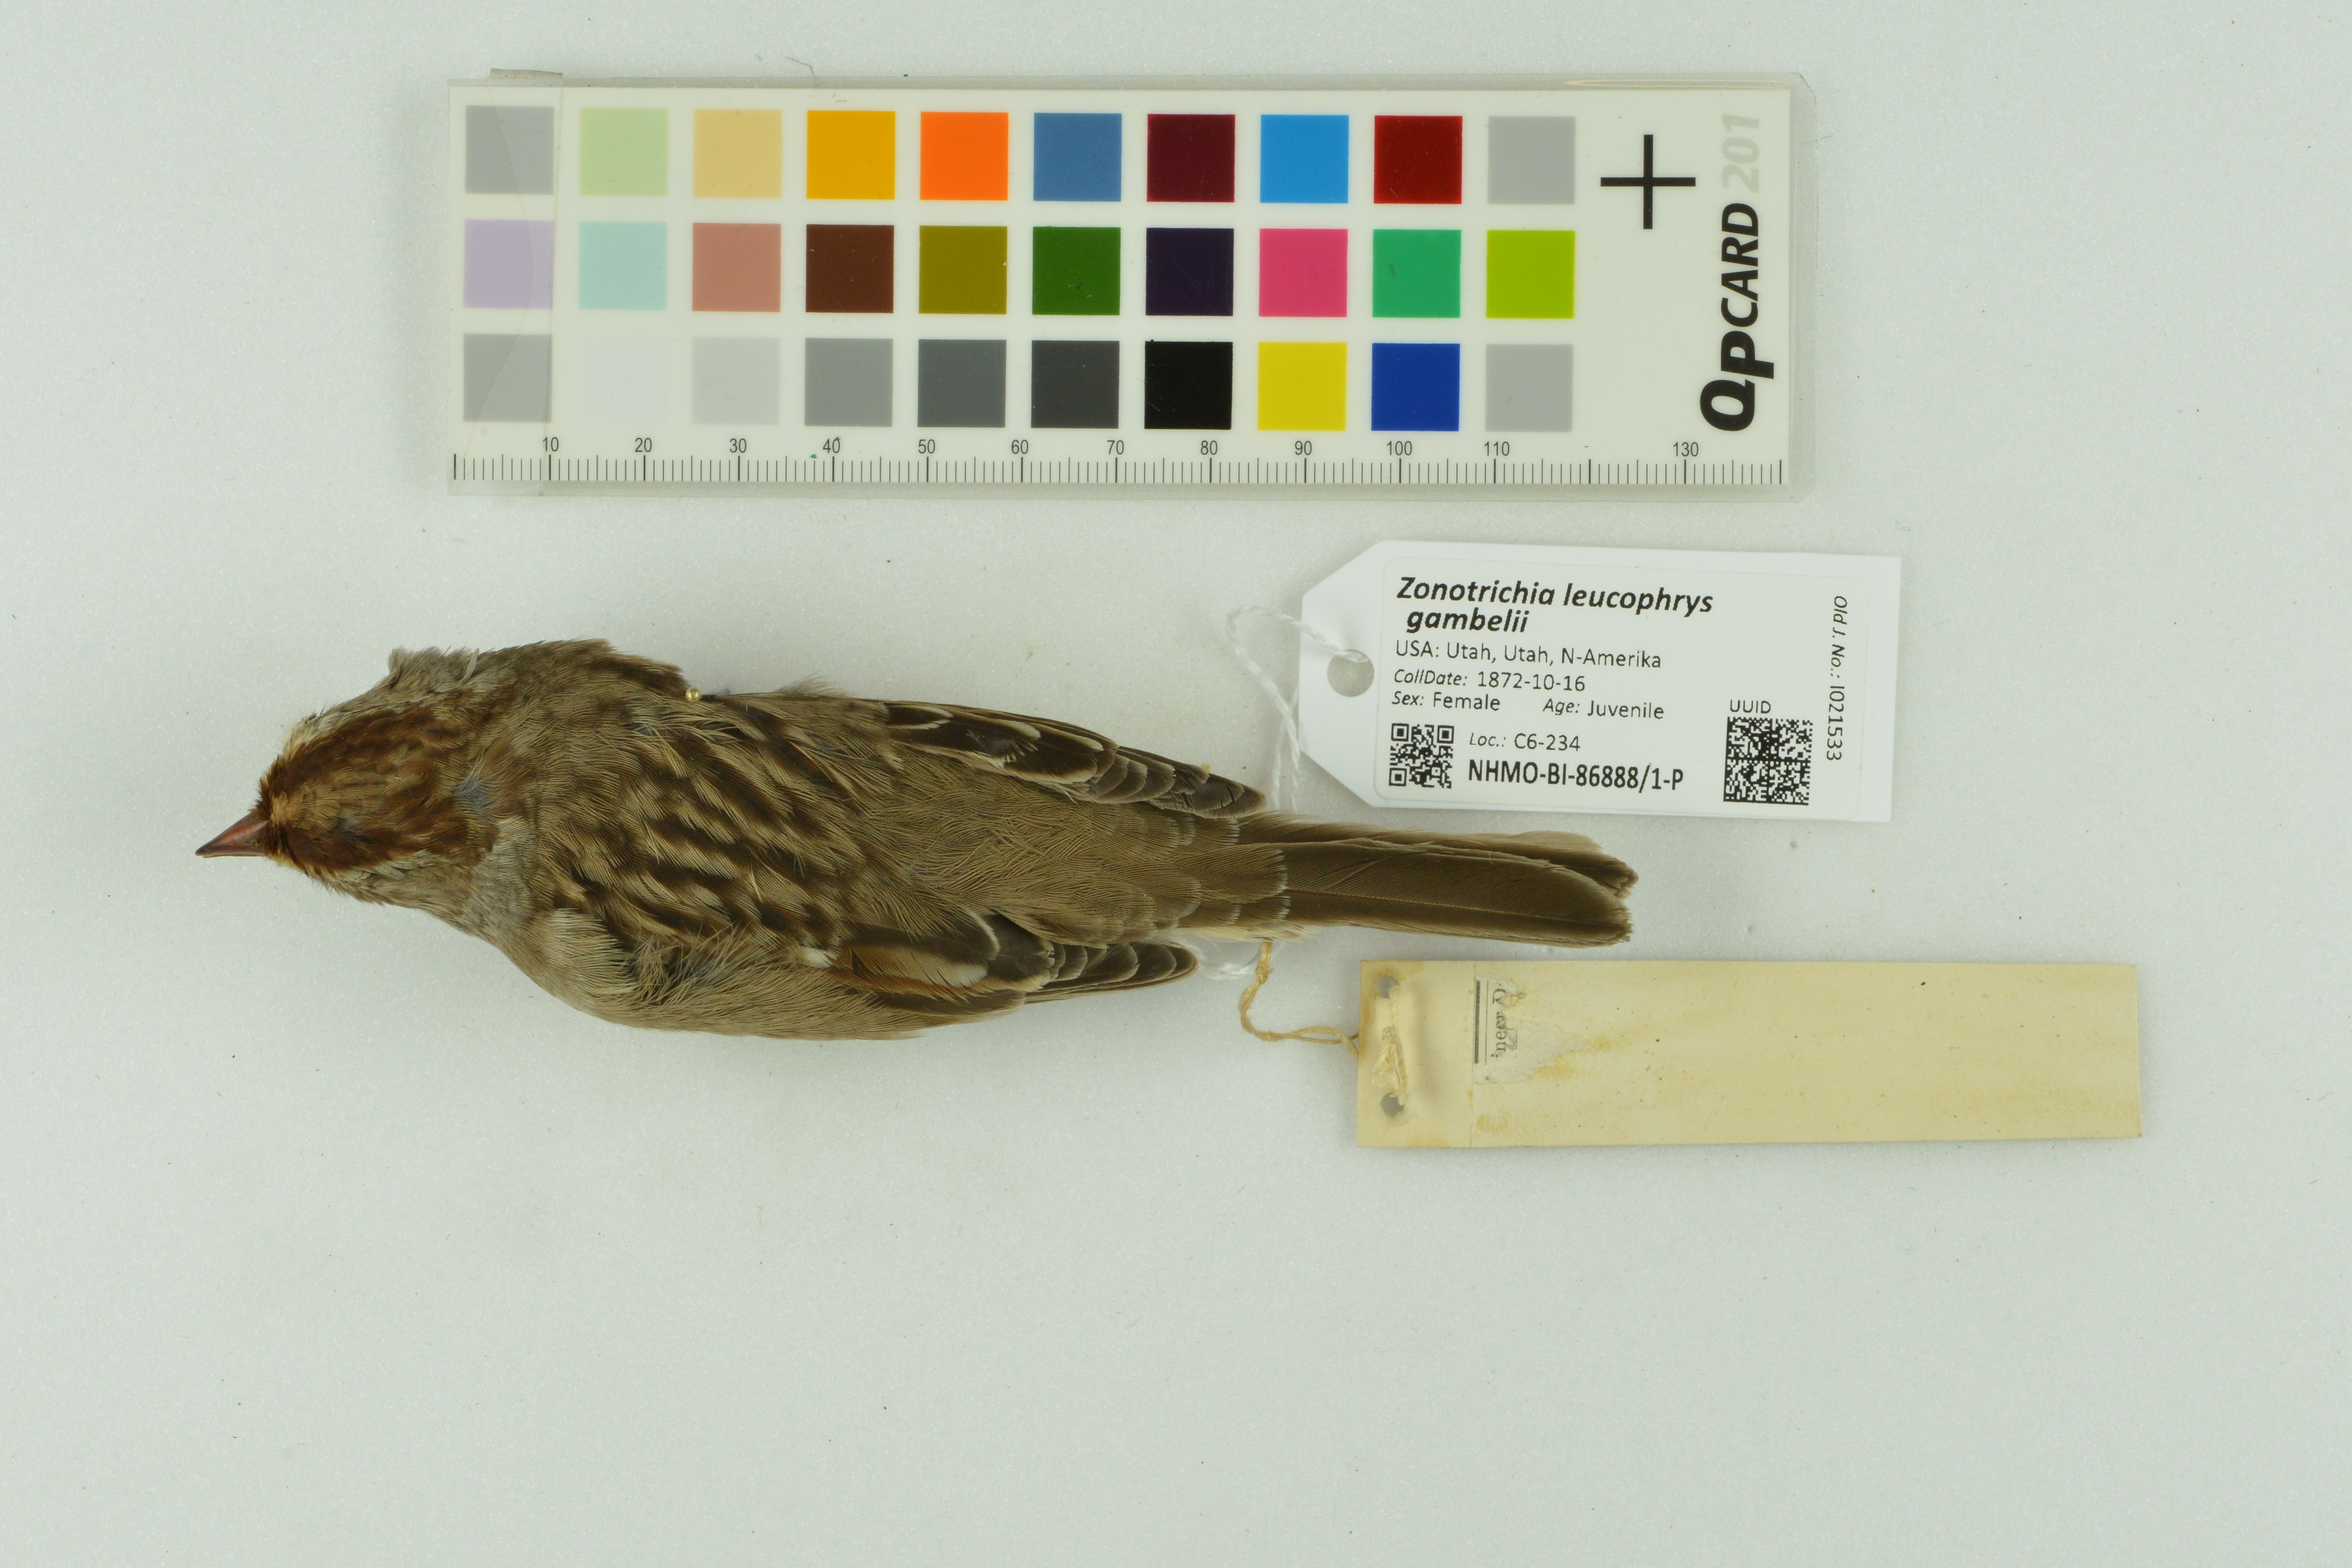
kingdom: Animalia
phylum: Chordata
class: Aves
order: Passeriformes
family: Passerellidae
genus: Zonotrichia
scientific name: Zonotrichia leucophrys
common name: White-crowned sparrow
